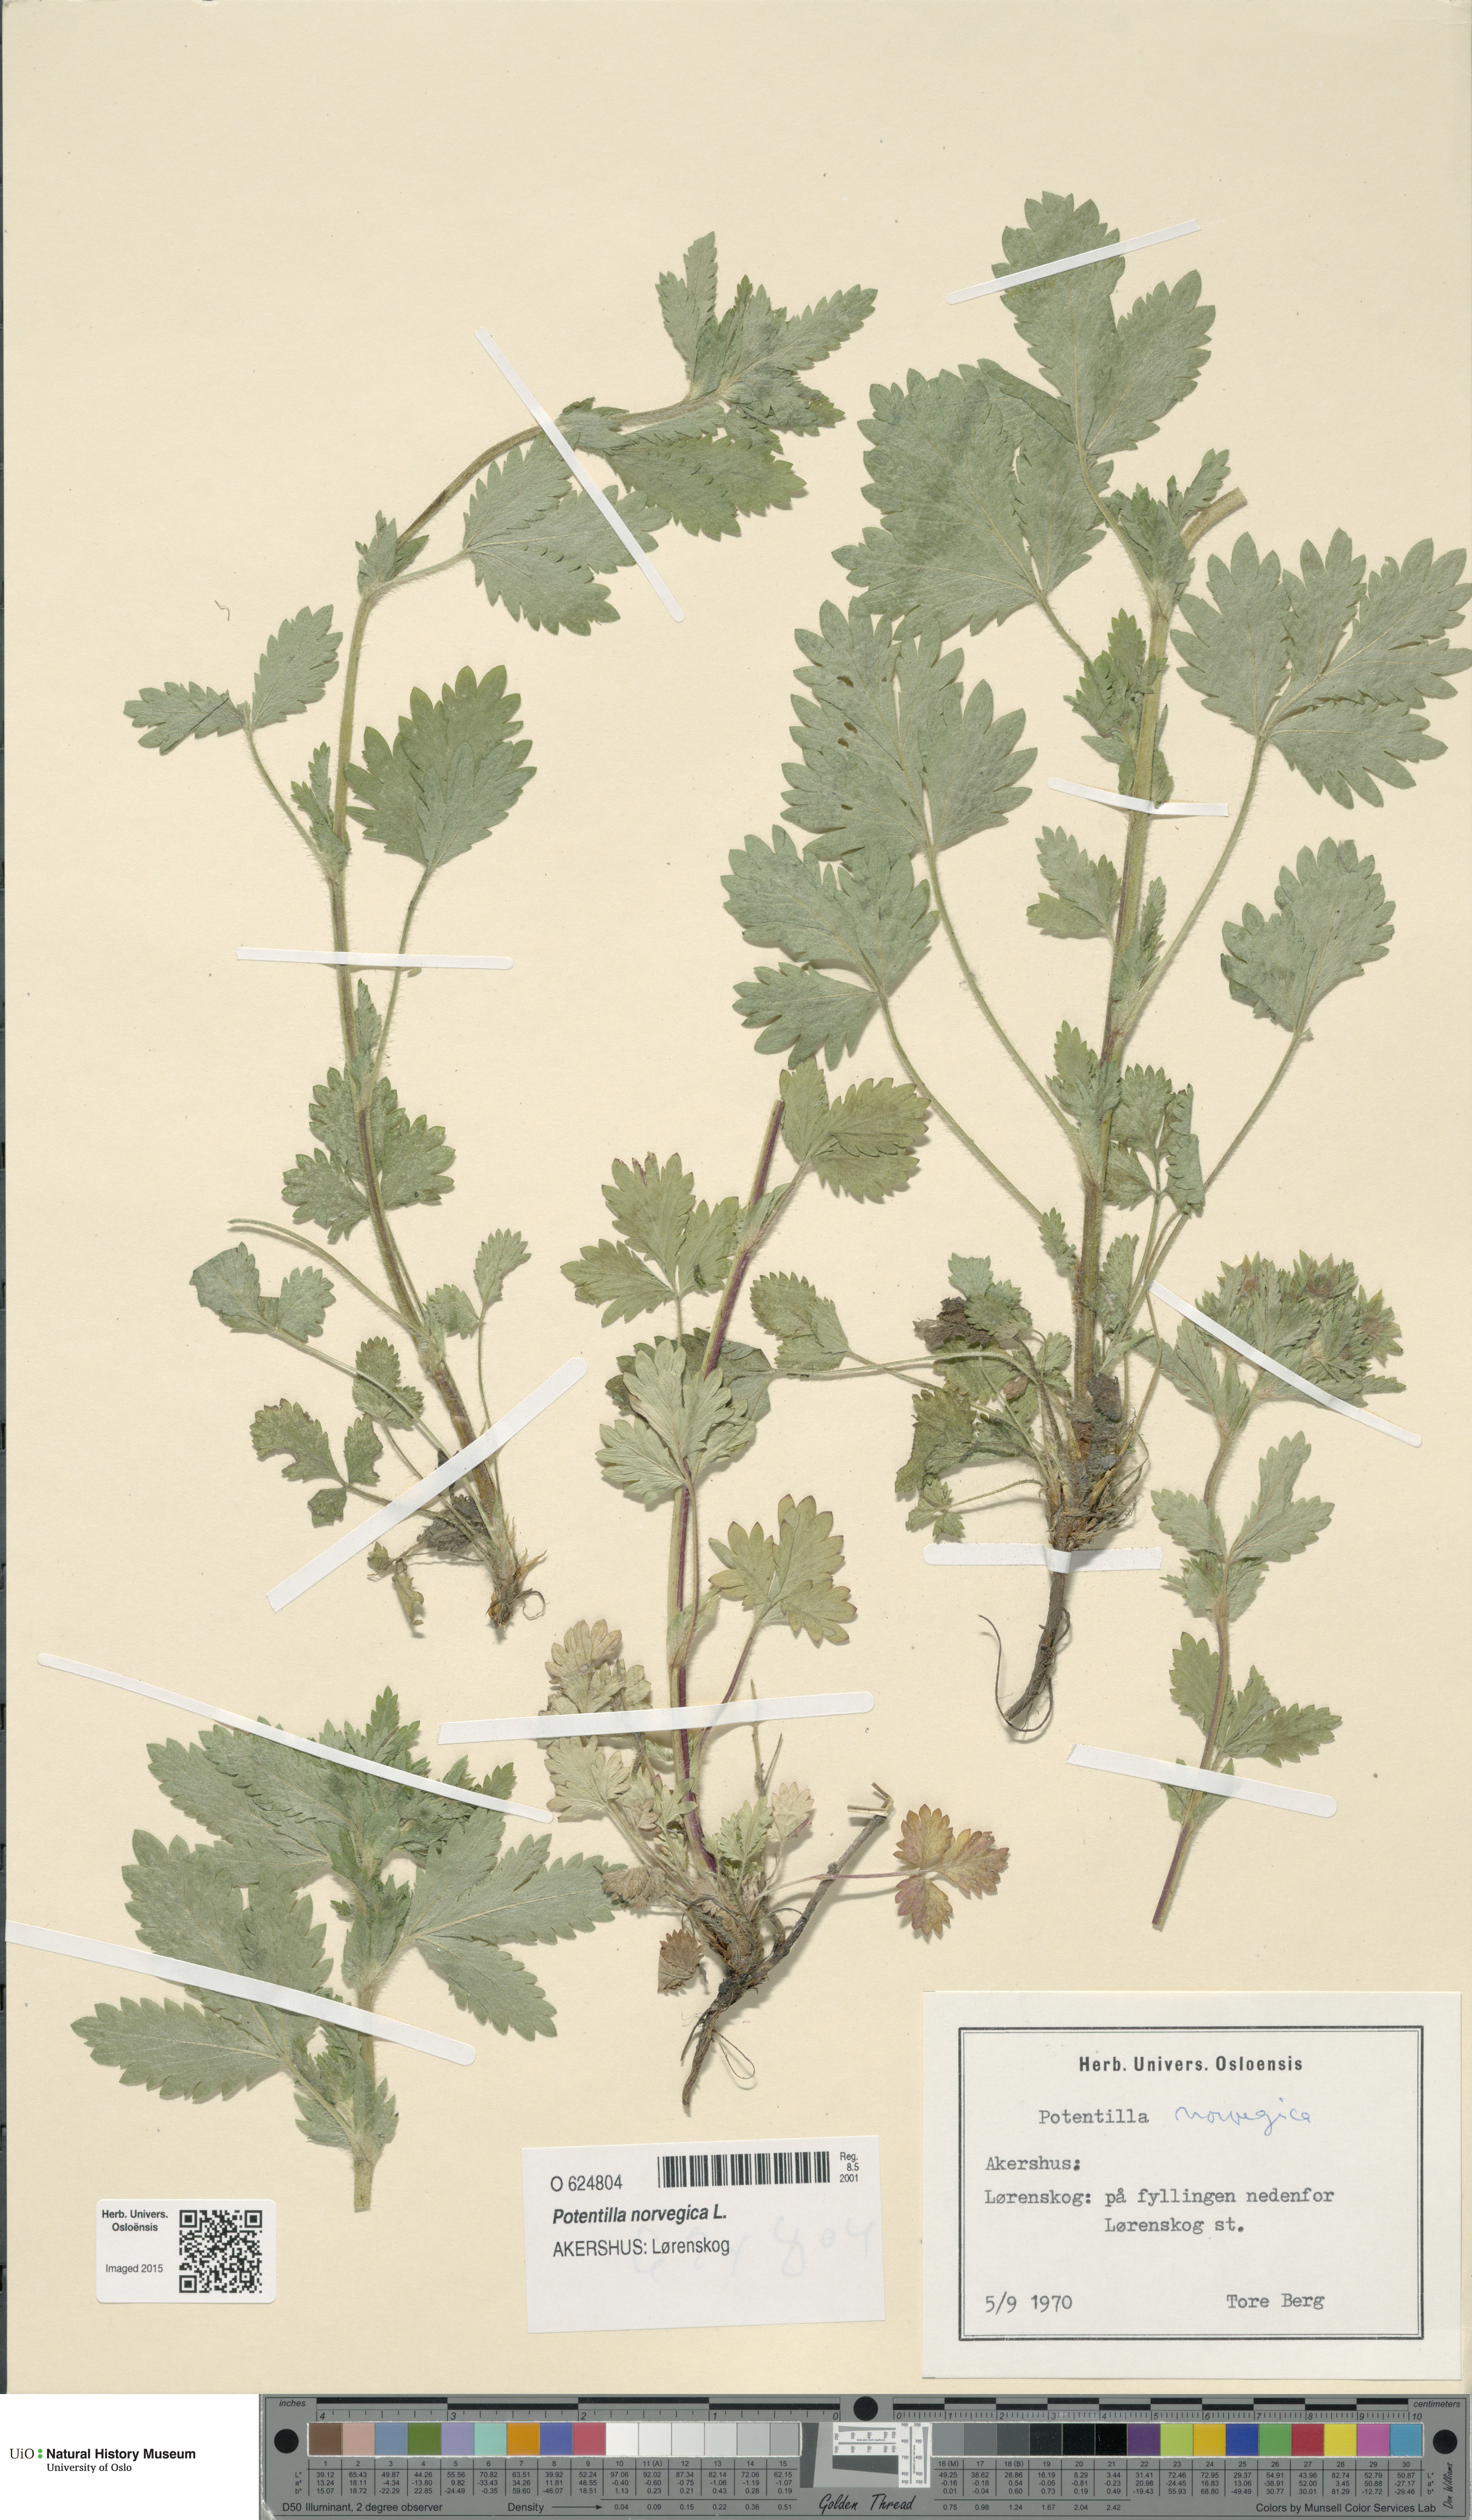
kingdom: Plantae
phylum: Tracheophyta
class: Magnoliopsida
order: Rosales
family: Rosaceae
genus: Potentilla
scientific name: Potentilla norvegica
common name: Ternate-leaved cinquefoil
